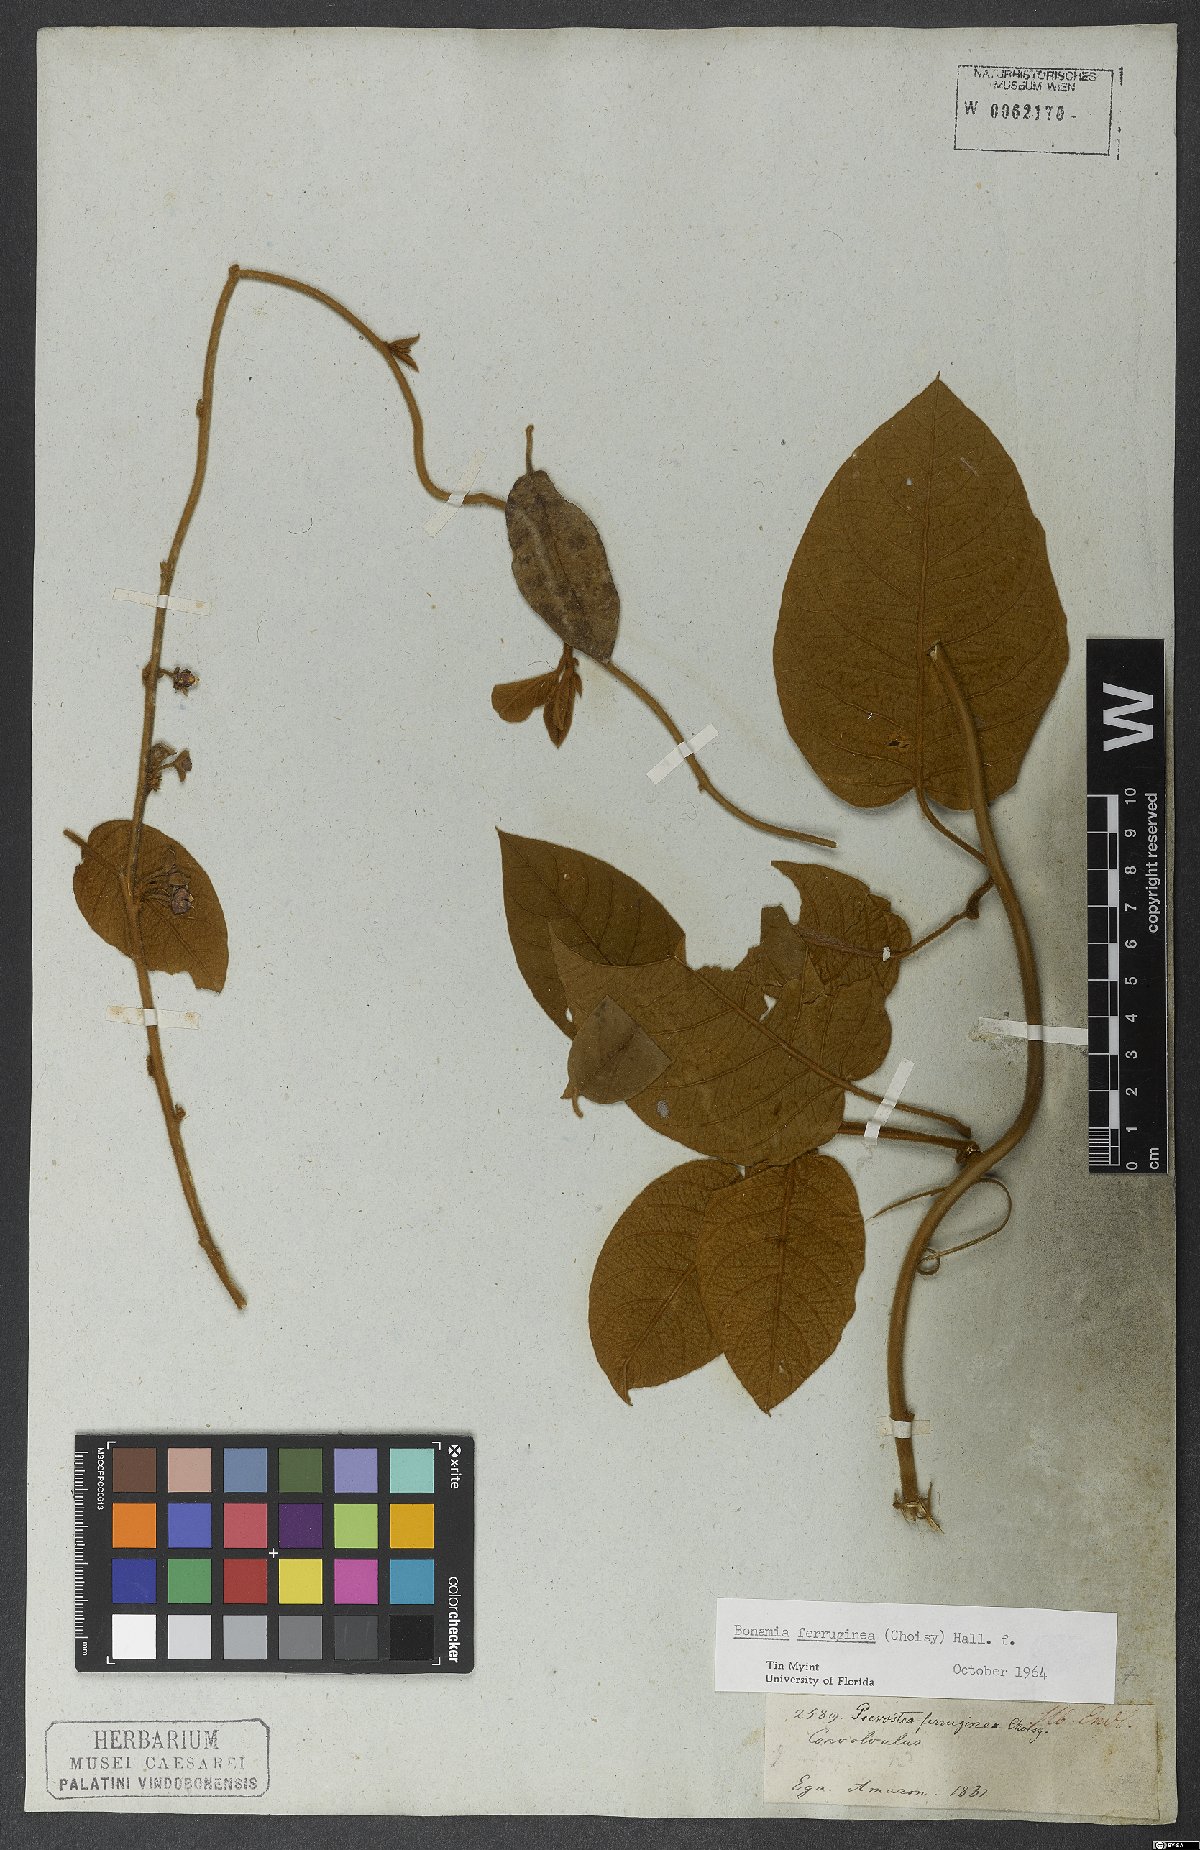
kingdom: Plantae
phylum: Tracheophyta
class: Magnoliopsida
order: Solanales
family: Convolvulaceae
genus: Bonamia
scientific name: Bonamia ferruginea
